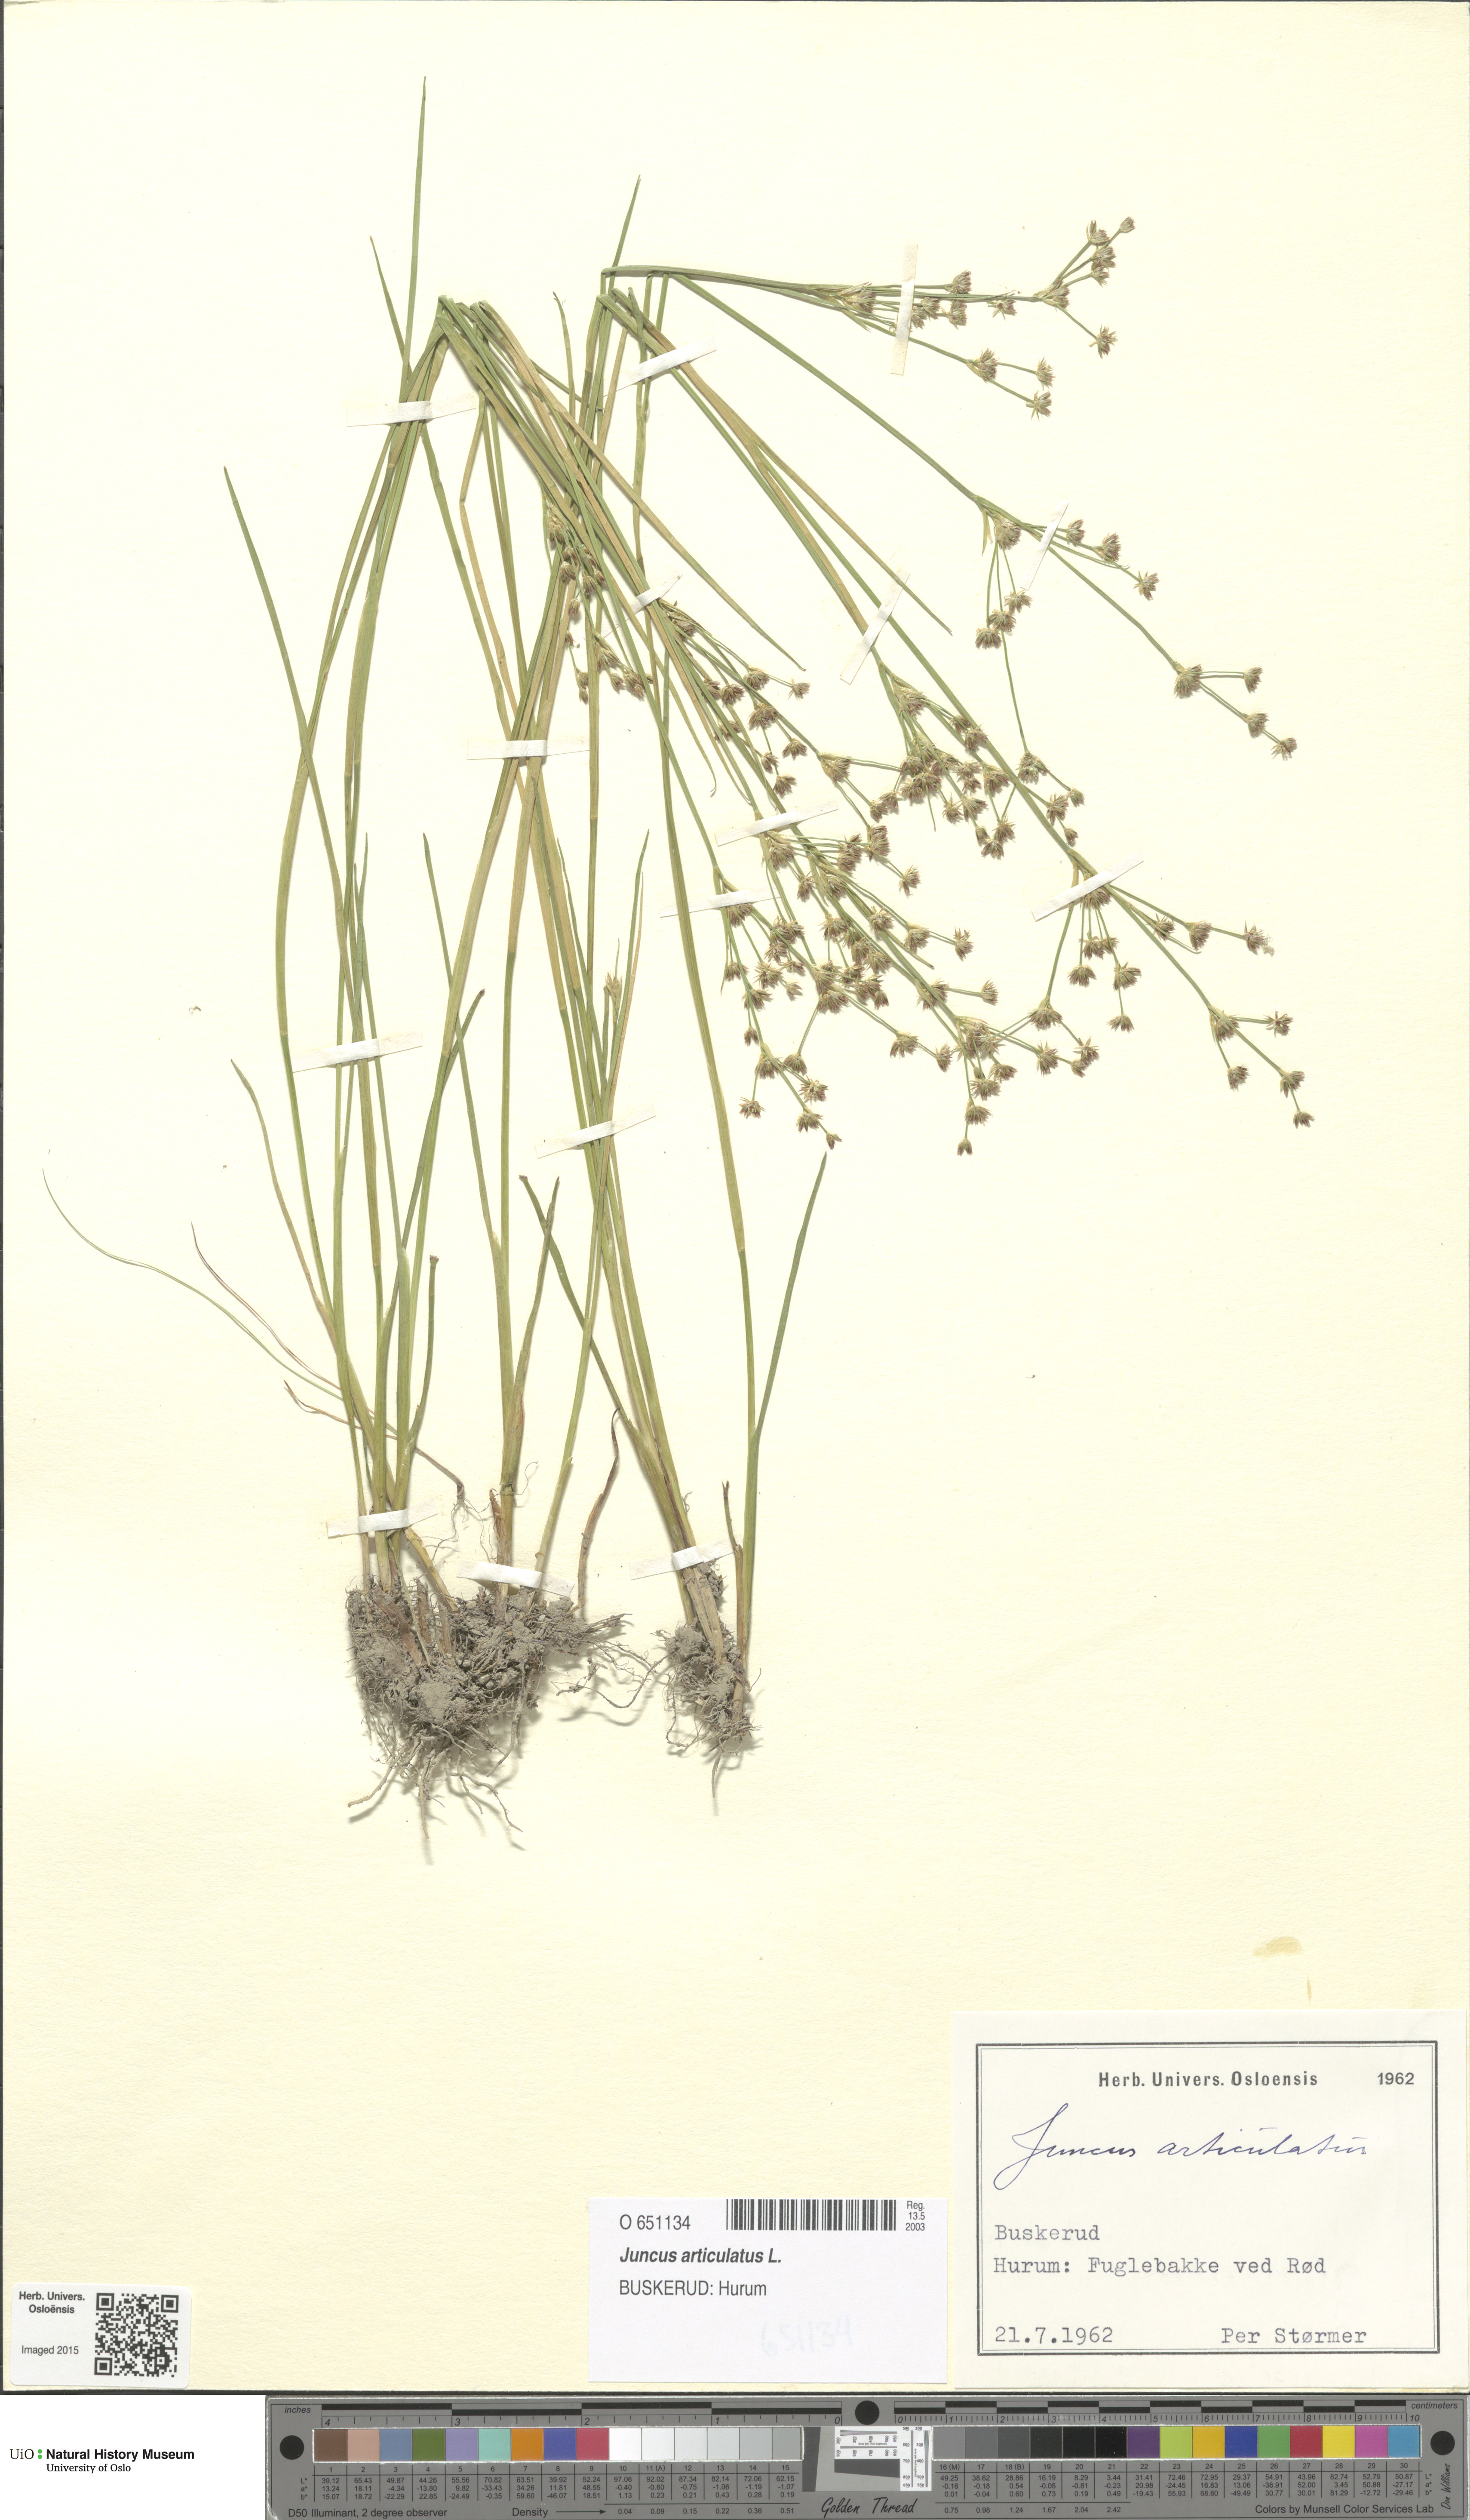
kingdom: Plantae
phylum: Tracheophyta
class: Liliopsida
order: Poales
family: Juncaceae
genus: Juncus
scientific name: Juncus articulatus
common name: Jointed rush
